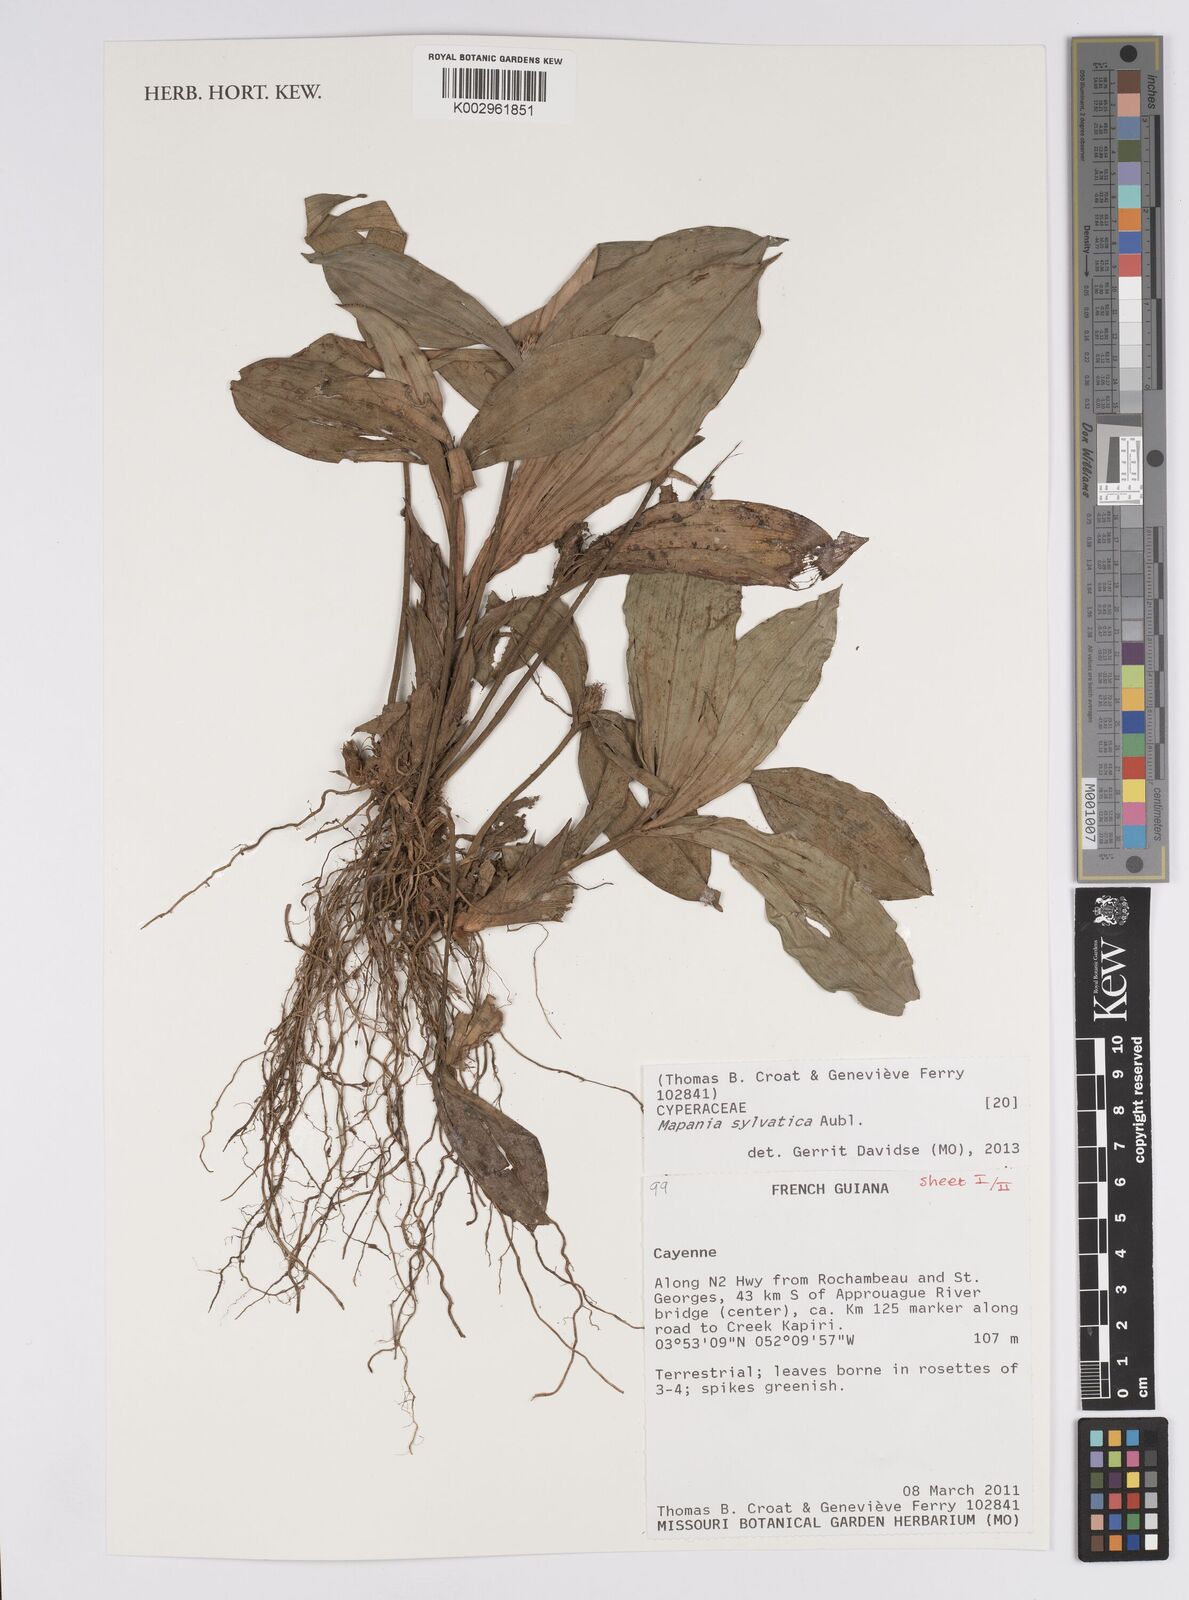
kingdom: Plantae
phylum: Tracheophyta
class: Liliopsida
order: Poales
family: Cyperaceae
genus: Mapania
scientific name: Mapania sylvatica
